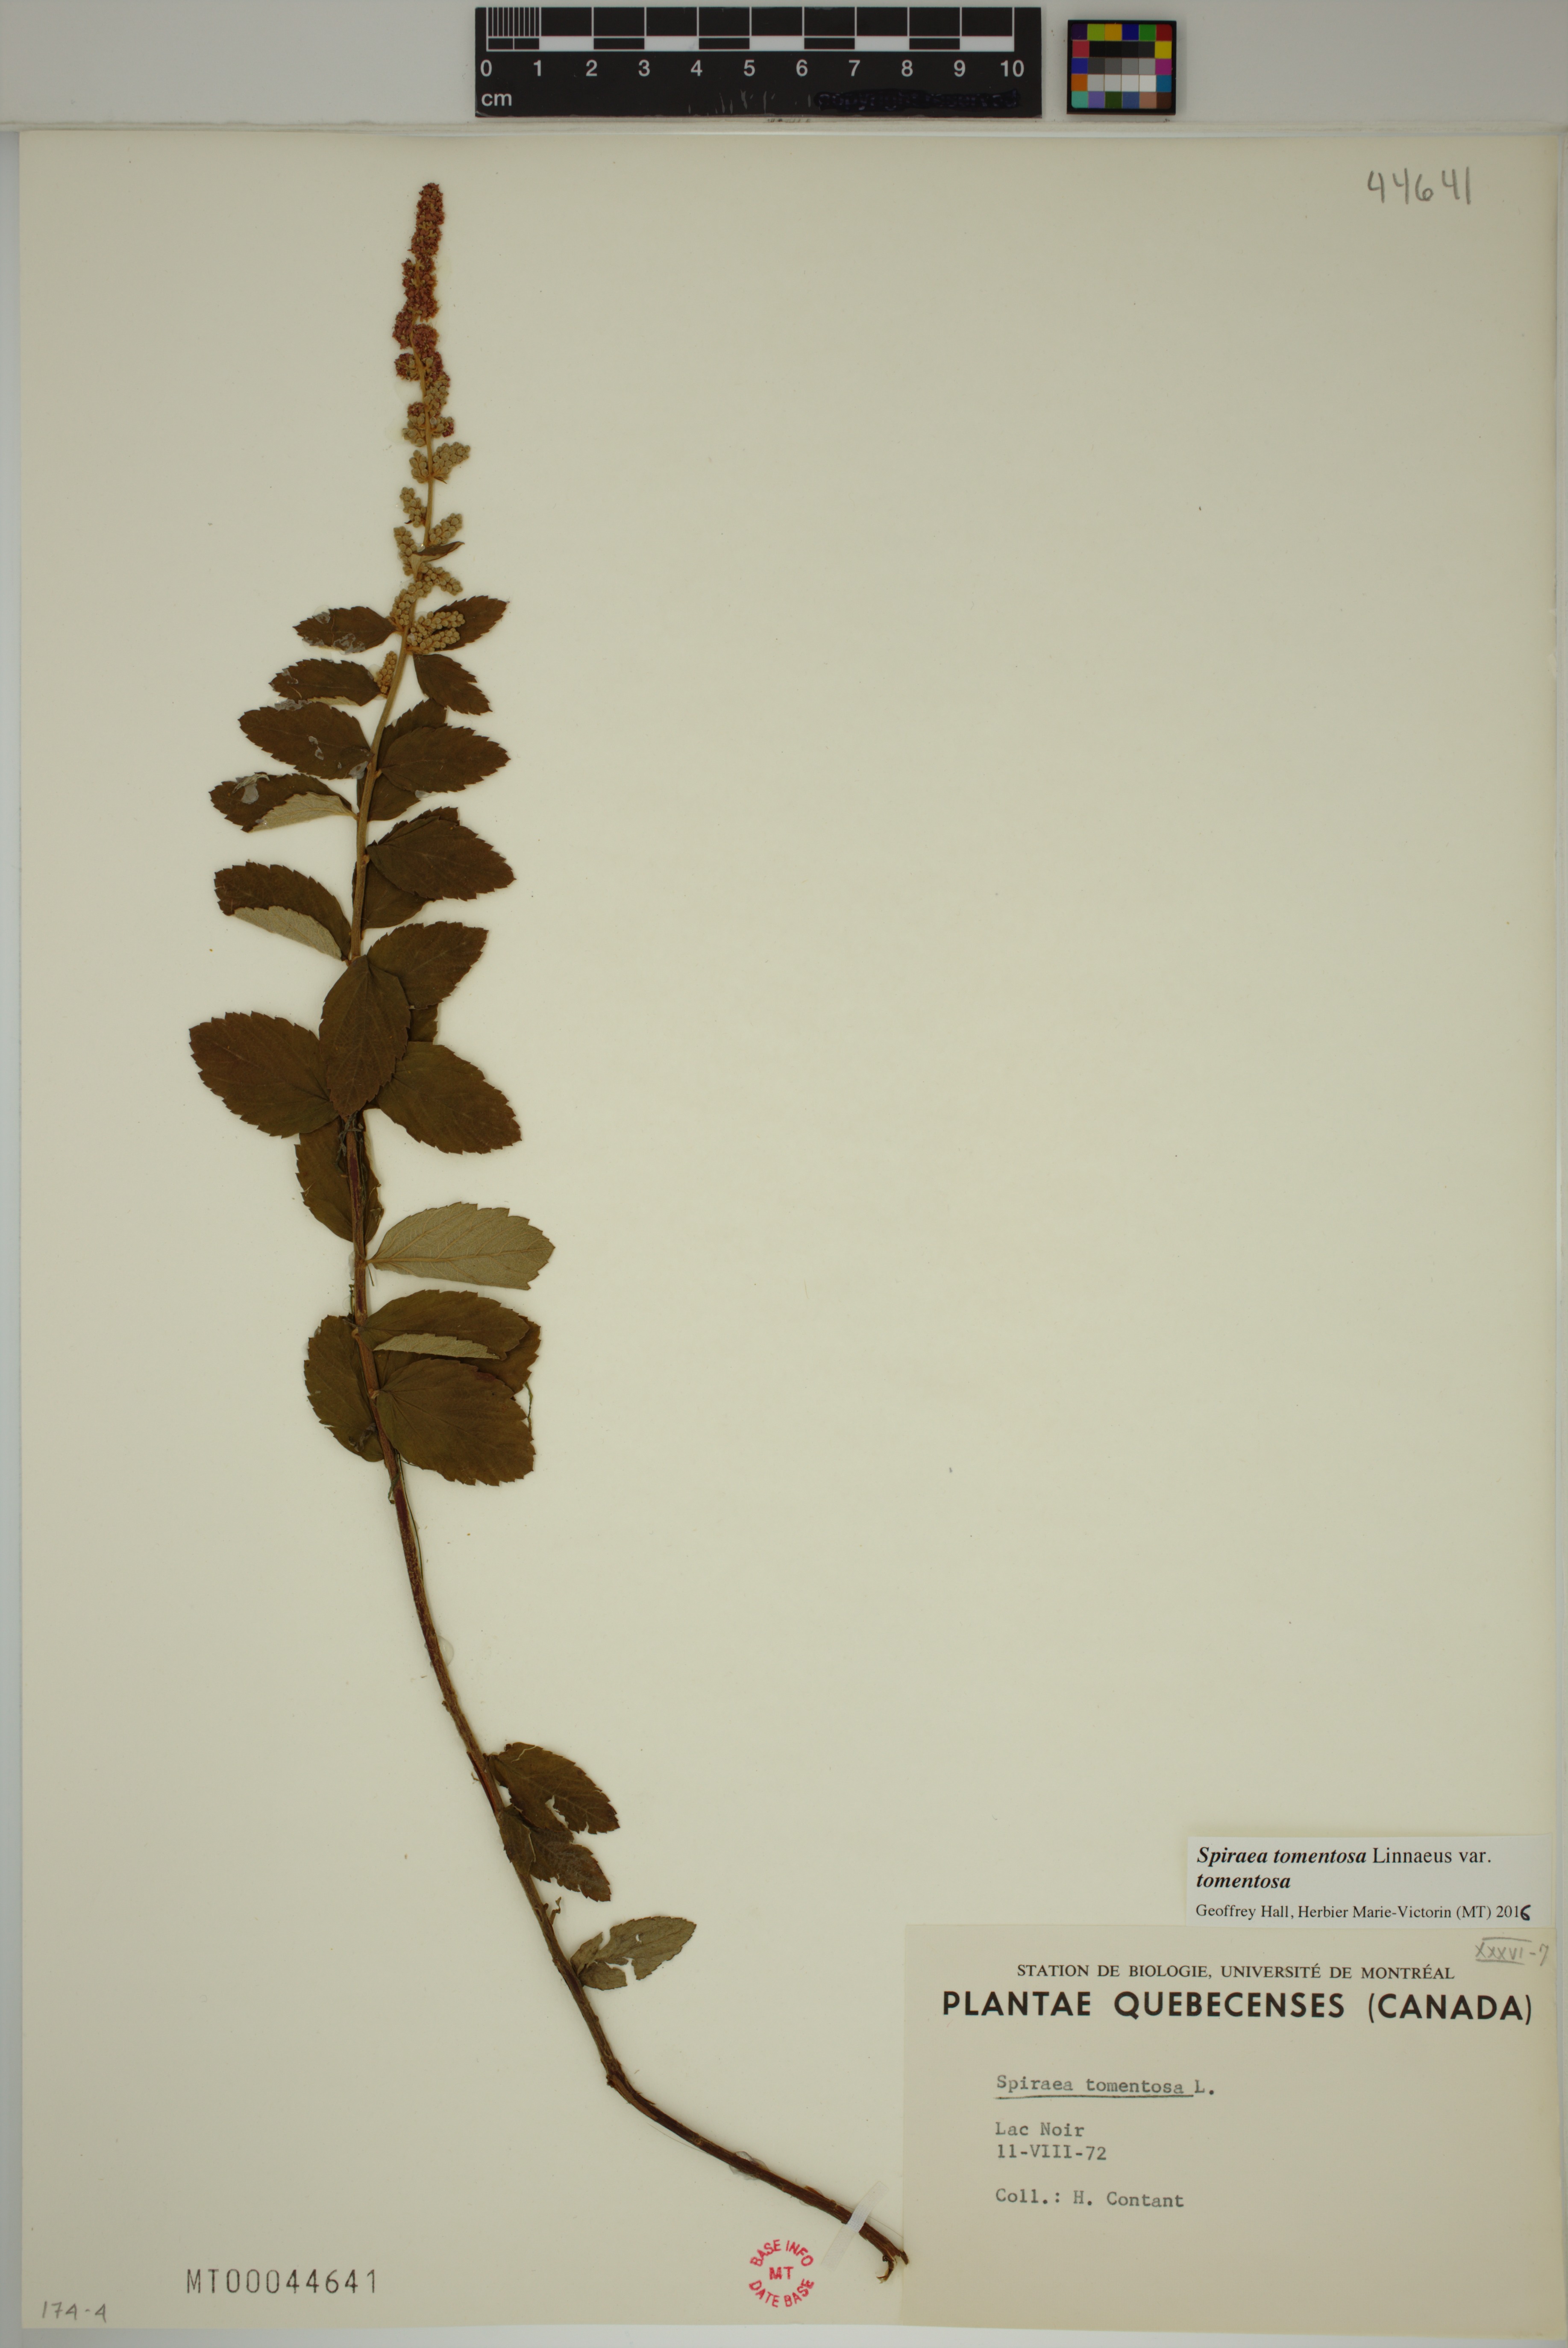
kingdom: Plantae
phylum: Tracheophyta
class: Magnoliopsida
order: Rosales
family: Rosaceae
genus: Spiraea
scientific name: Spiraea tomentosa
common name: Hardhack
